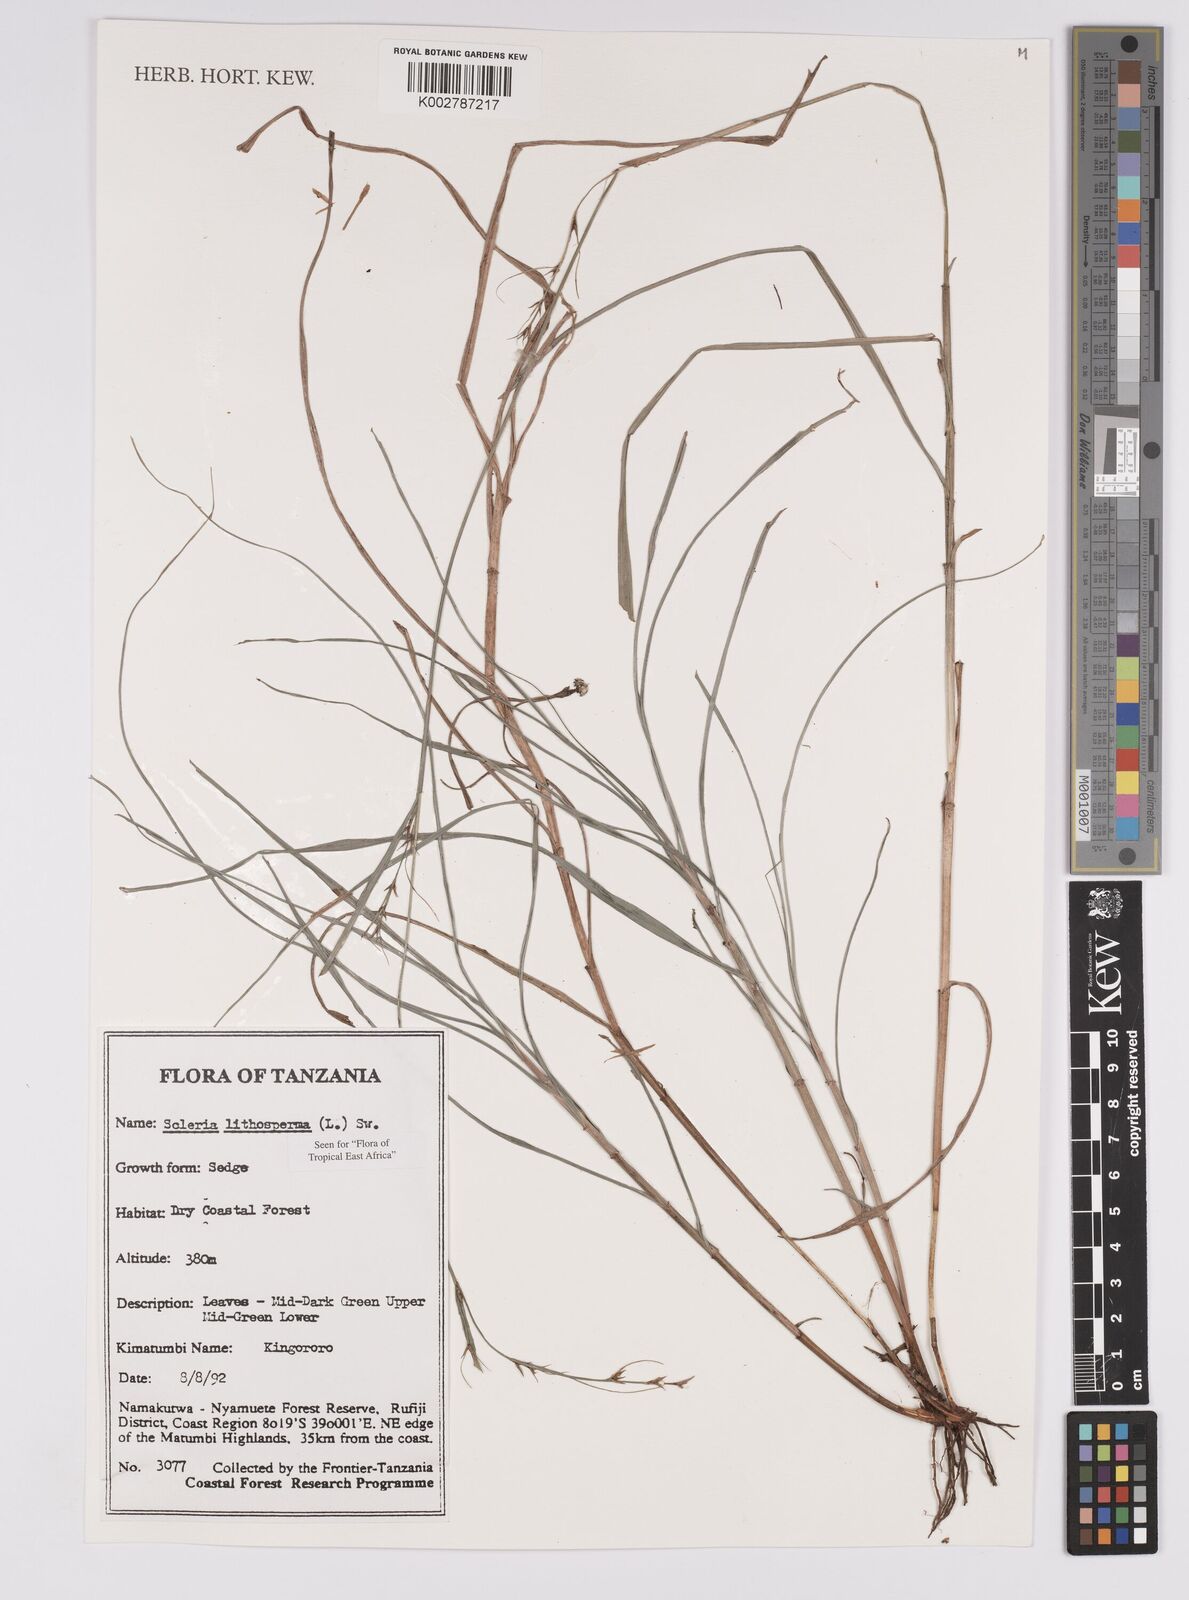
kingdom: Plantae
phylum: Tracheophyta
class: Liliopsida
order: Poales
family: Cyperaceae
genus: Scleria
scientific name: Scleria lithosperma
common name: Florida keys nut-rush
